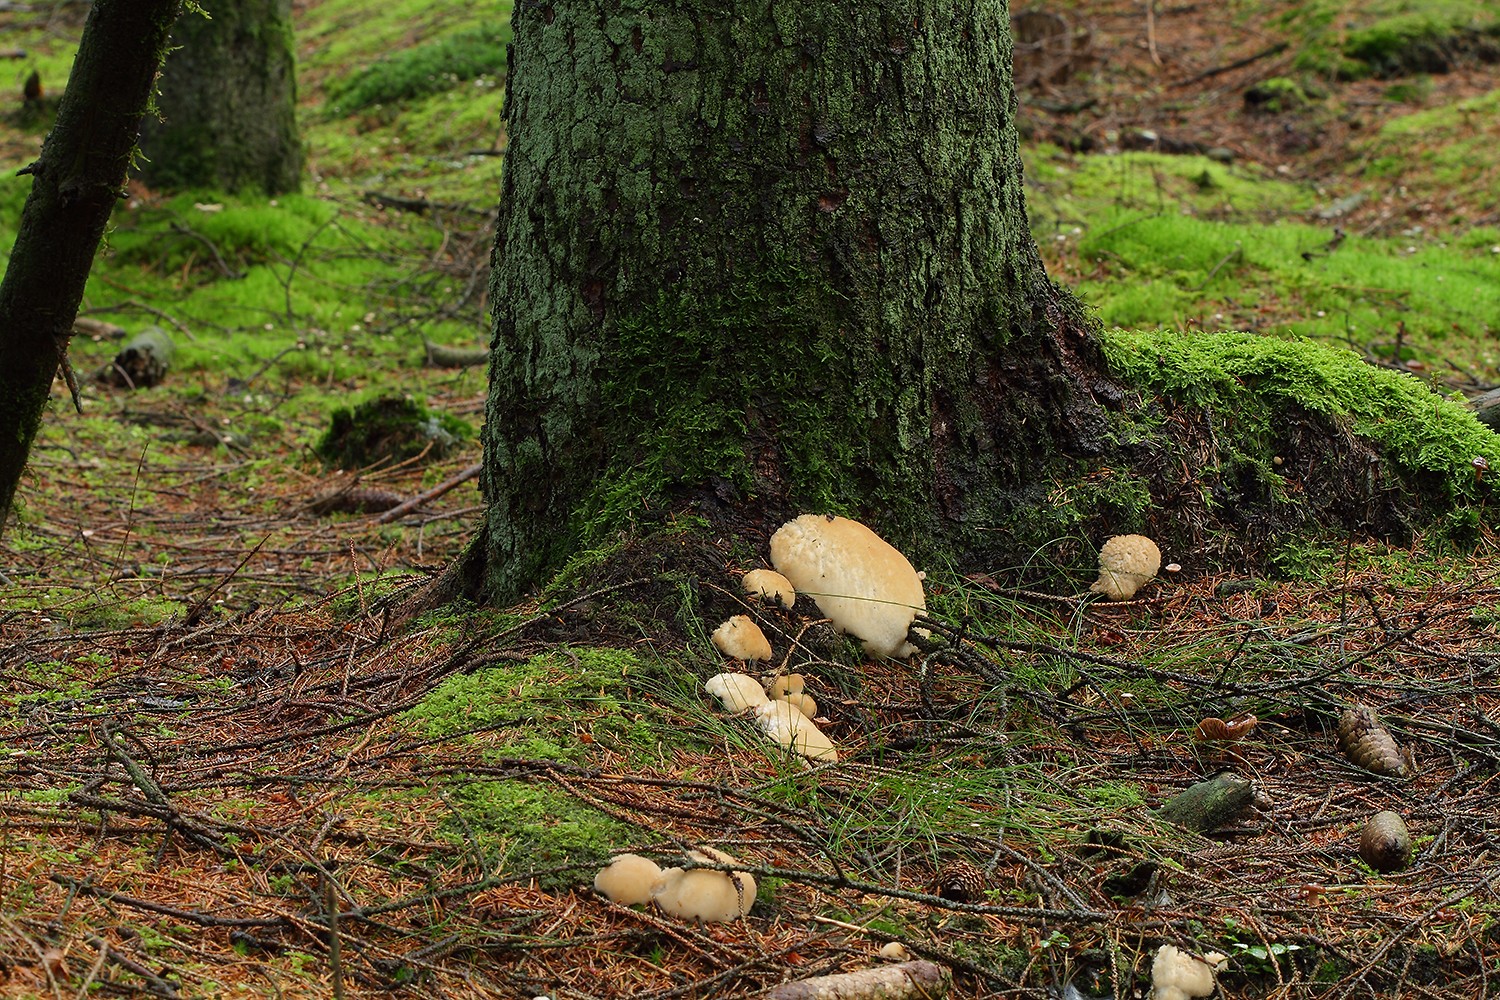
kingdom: Fungi
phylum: Basidiomycota
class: Agaricomycetes
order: Polyporales
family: Dacryobolaceae
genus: Postia
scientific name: Postia ptychogaster
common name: støvende kødporesvamp
